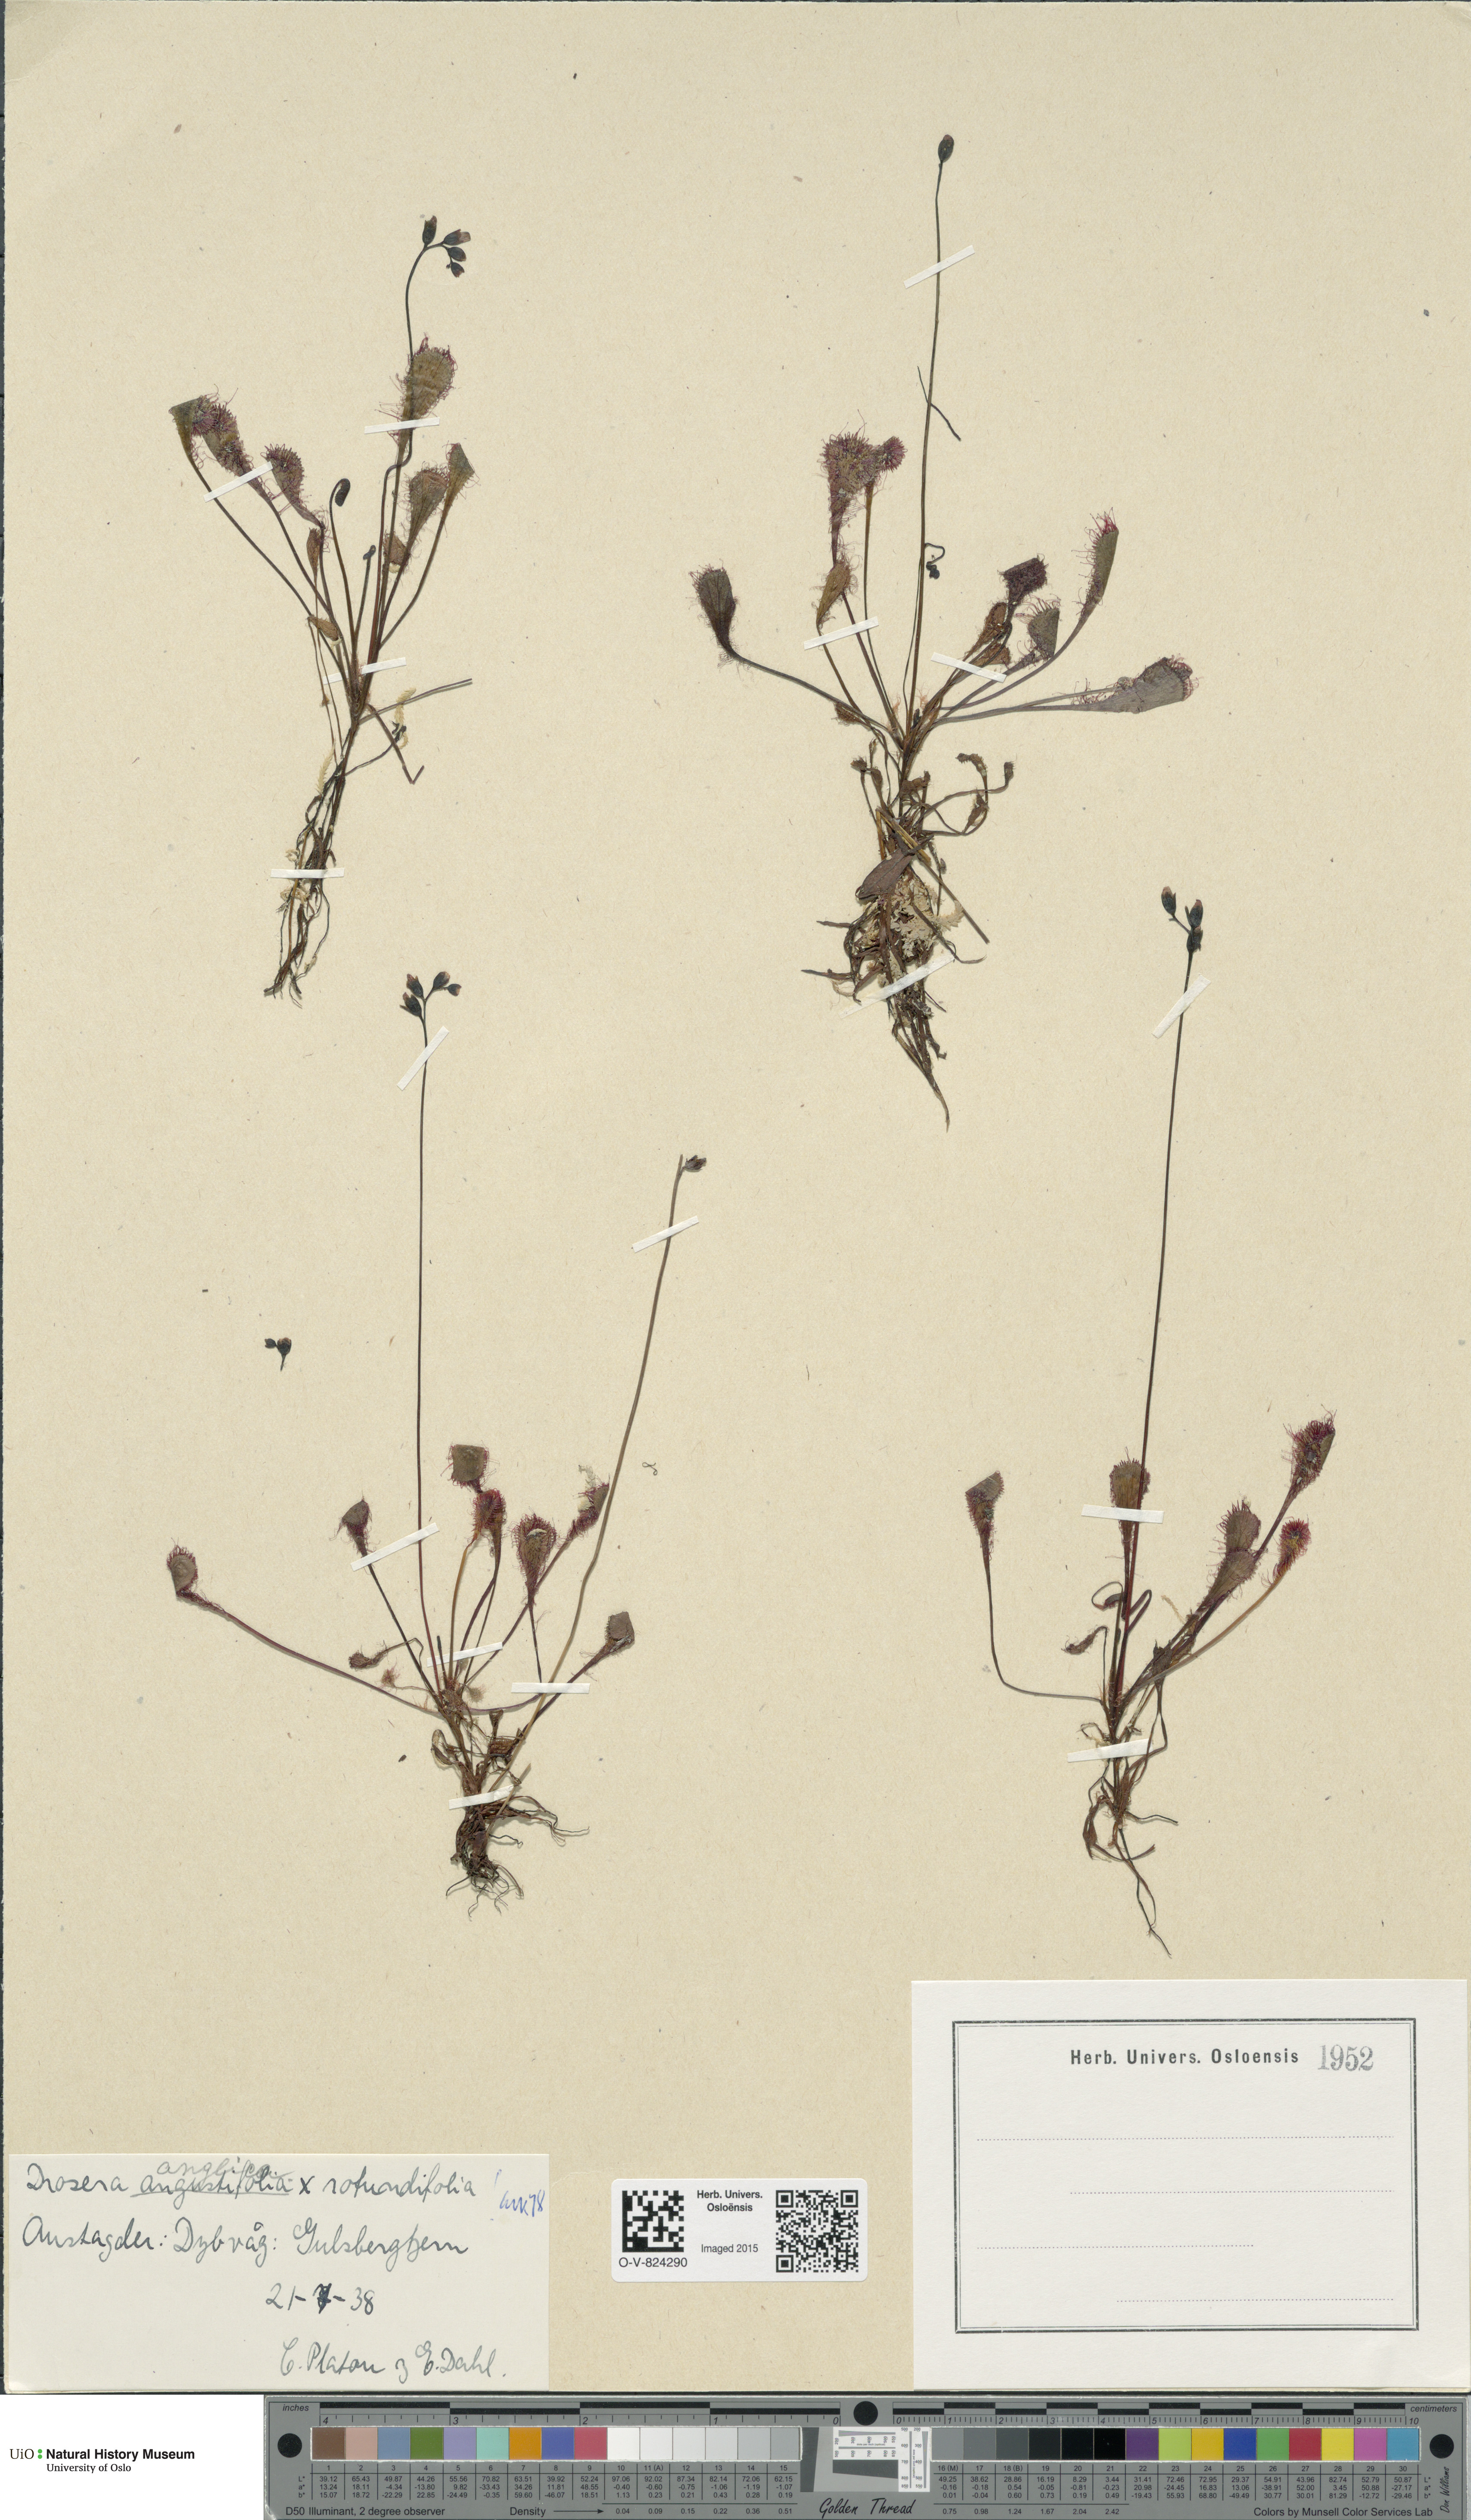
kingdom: Plantae
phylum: Tracheophyta
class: Magnoliopsida
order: Caryophyllales
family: Droseraceae
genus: Drosera
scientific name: Drosera
